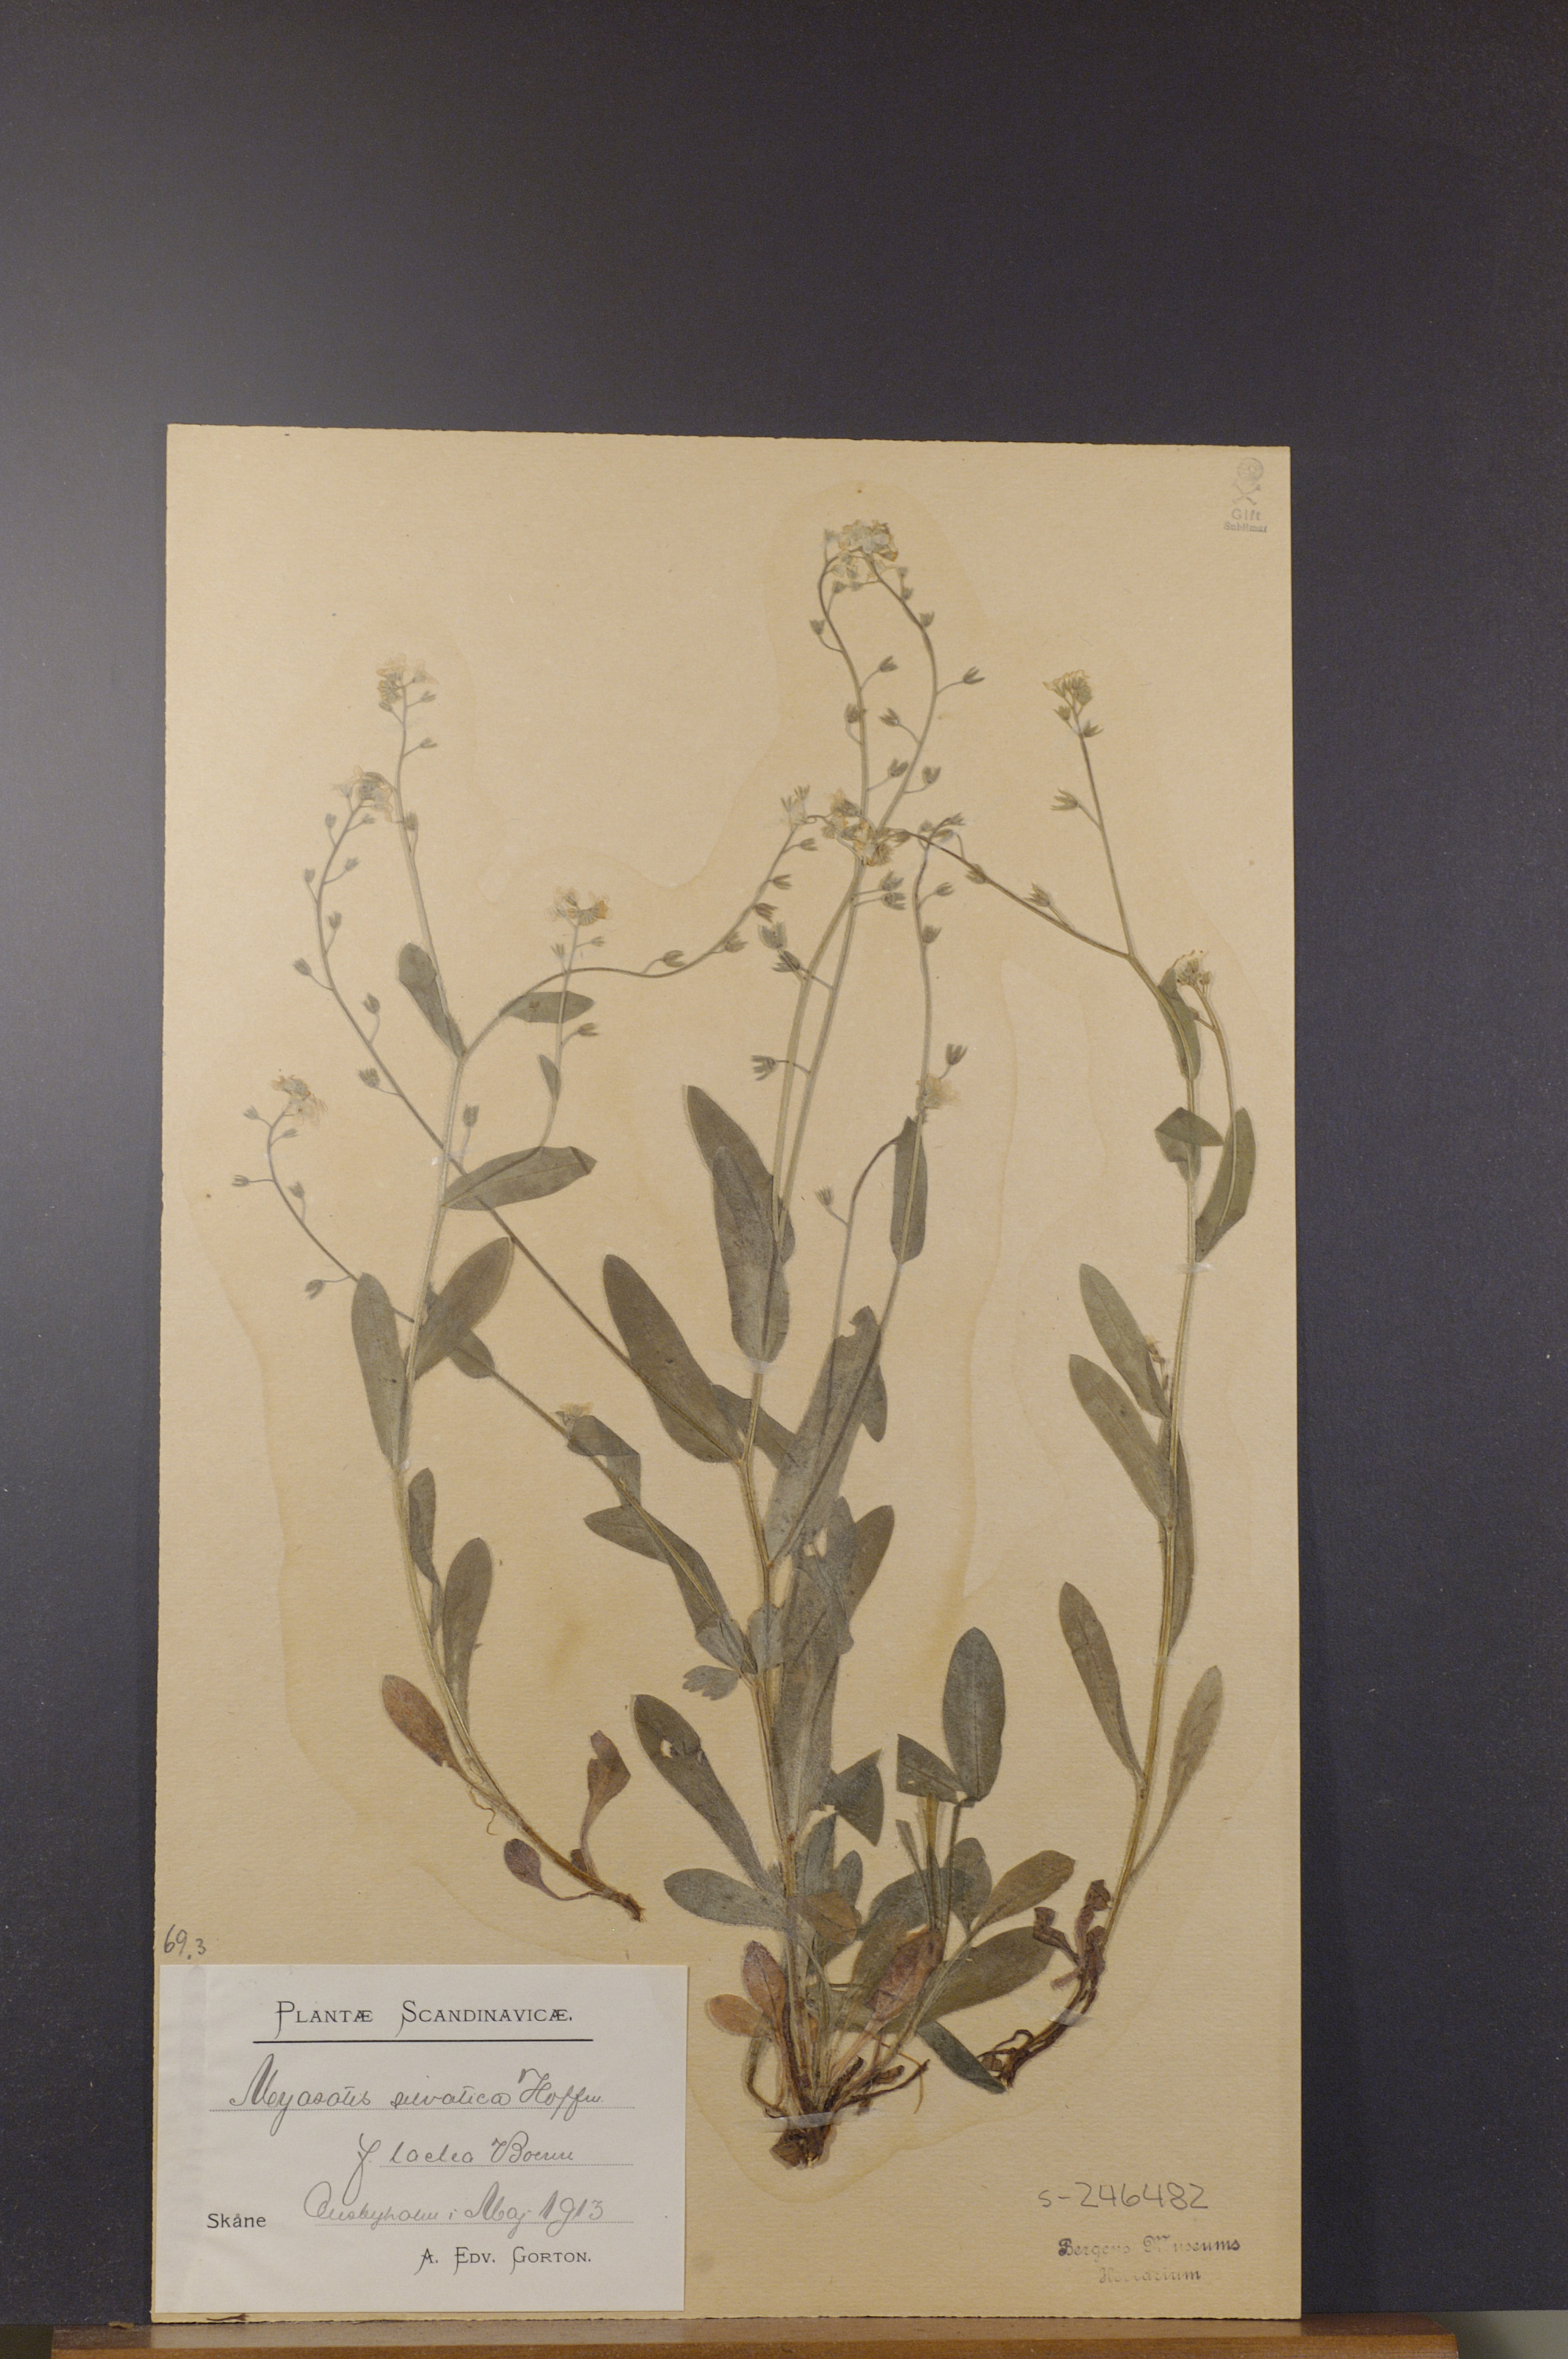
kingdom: Plantae
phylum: Tracheophyta
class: Magnoliopsida
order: Boraginales
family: Boraginaceae
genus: Myosotis
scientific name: Myosotis sylvatica
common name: Wood forget-me-not
